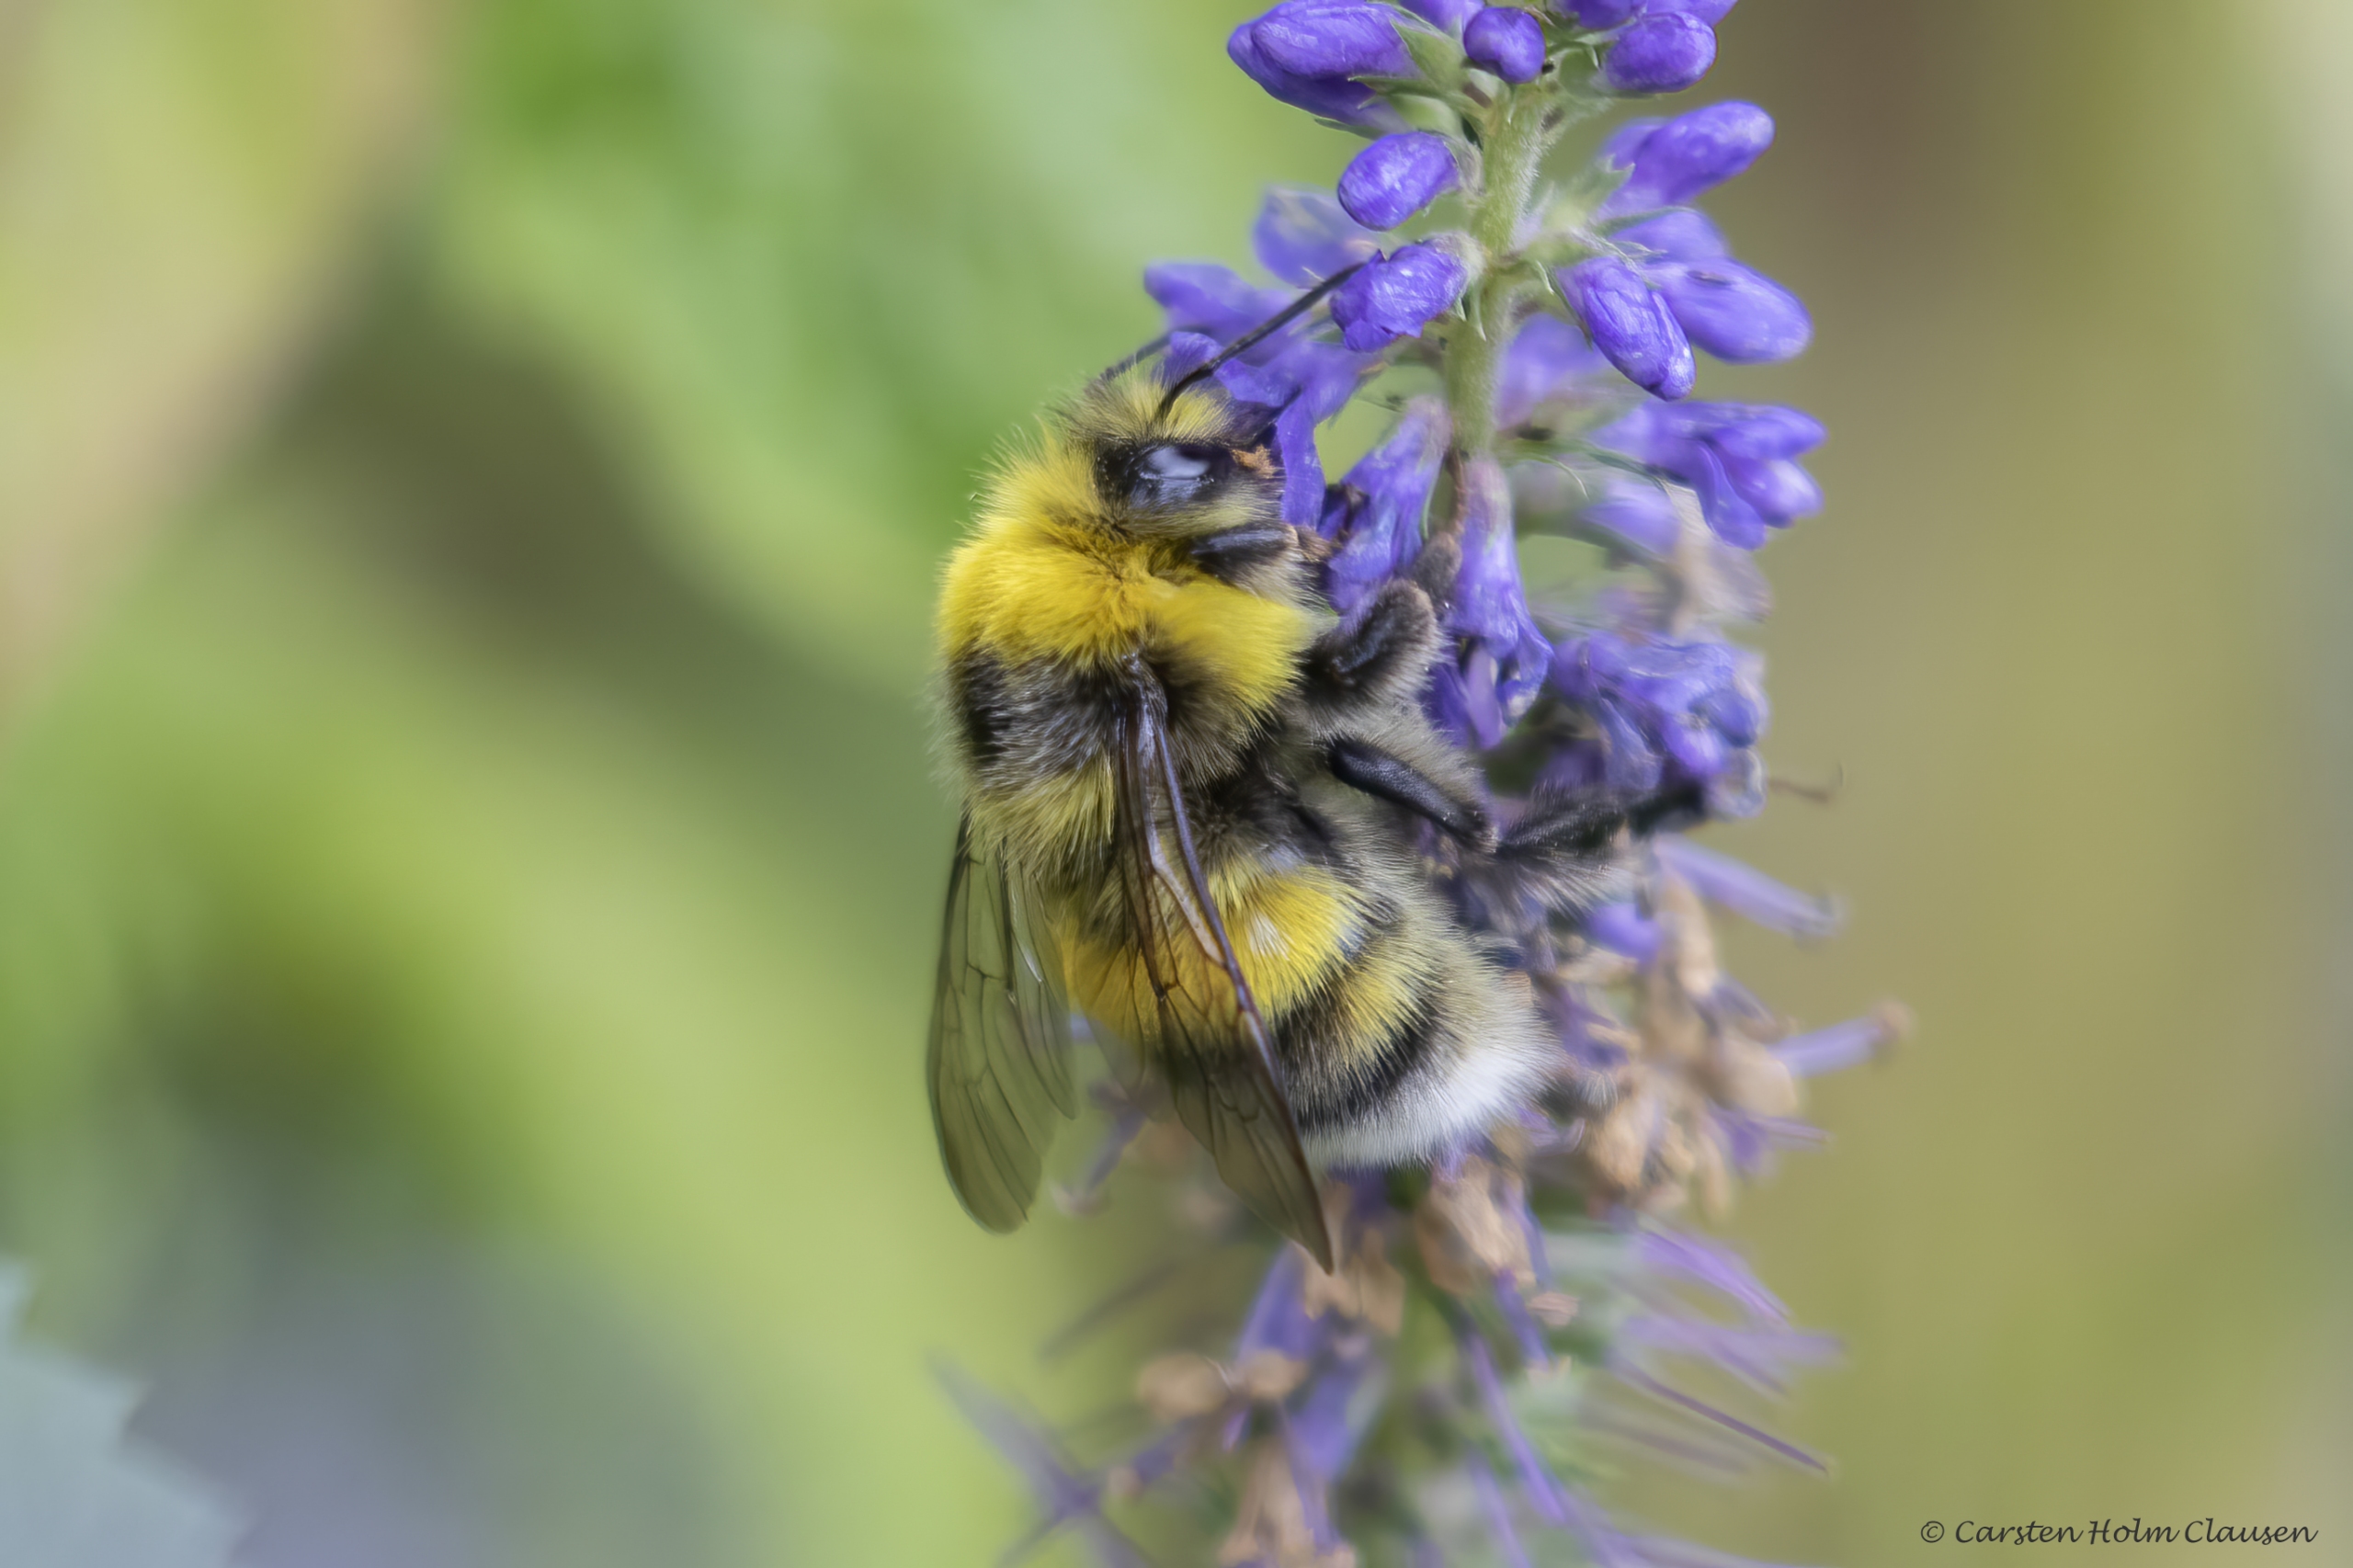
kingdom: Animalia
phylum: Arthropoda
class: Insecta
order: Hymenoptera
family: Apidae
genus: Bombus
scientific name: Bombus lucorum
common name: Lys jordhumle
